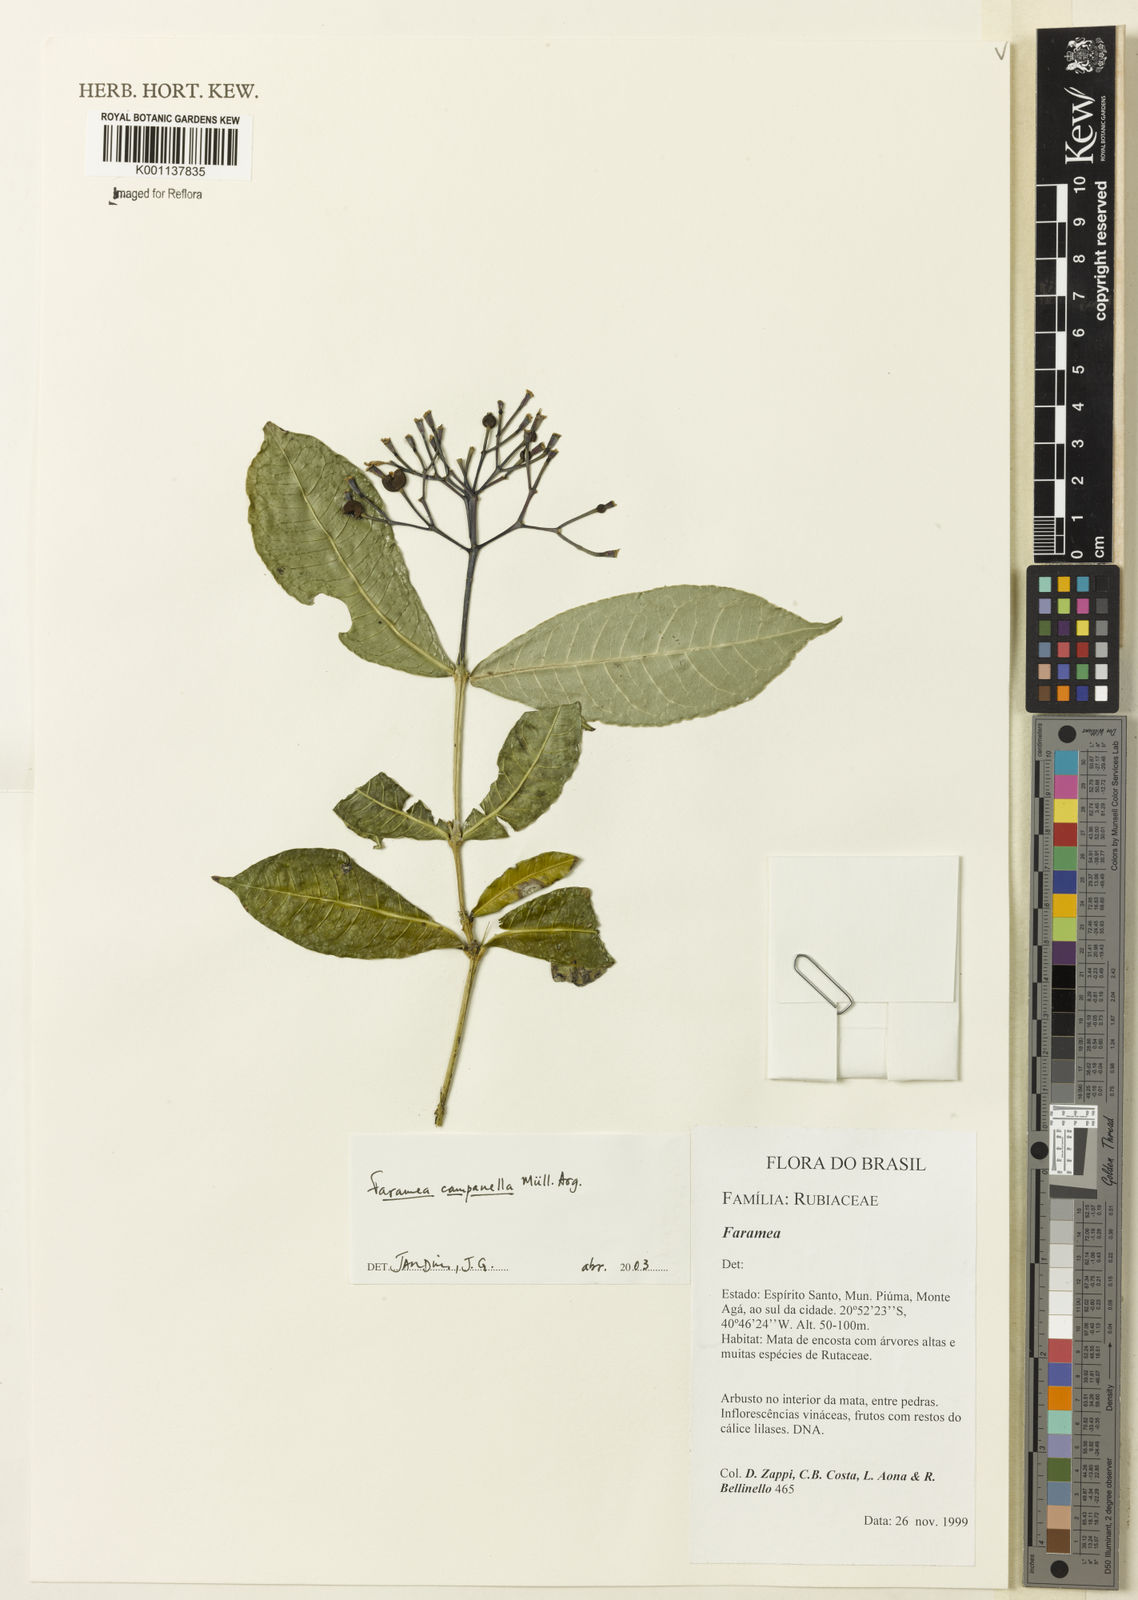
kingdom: Plantae
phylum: Tracheophyta
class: Magnoliopsida
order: Gentianales
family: Rubiaceae
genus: Faramea
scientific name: Faramea
